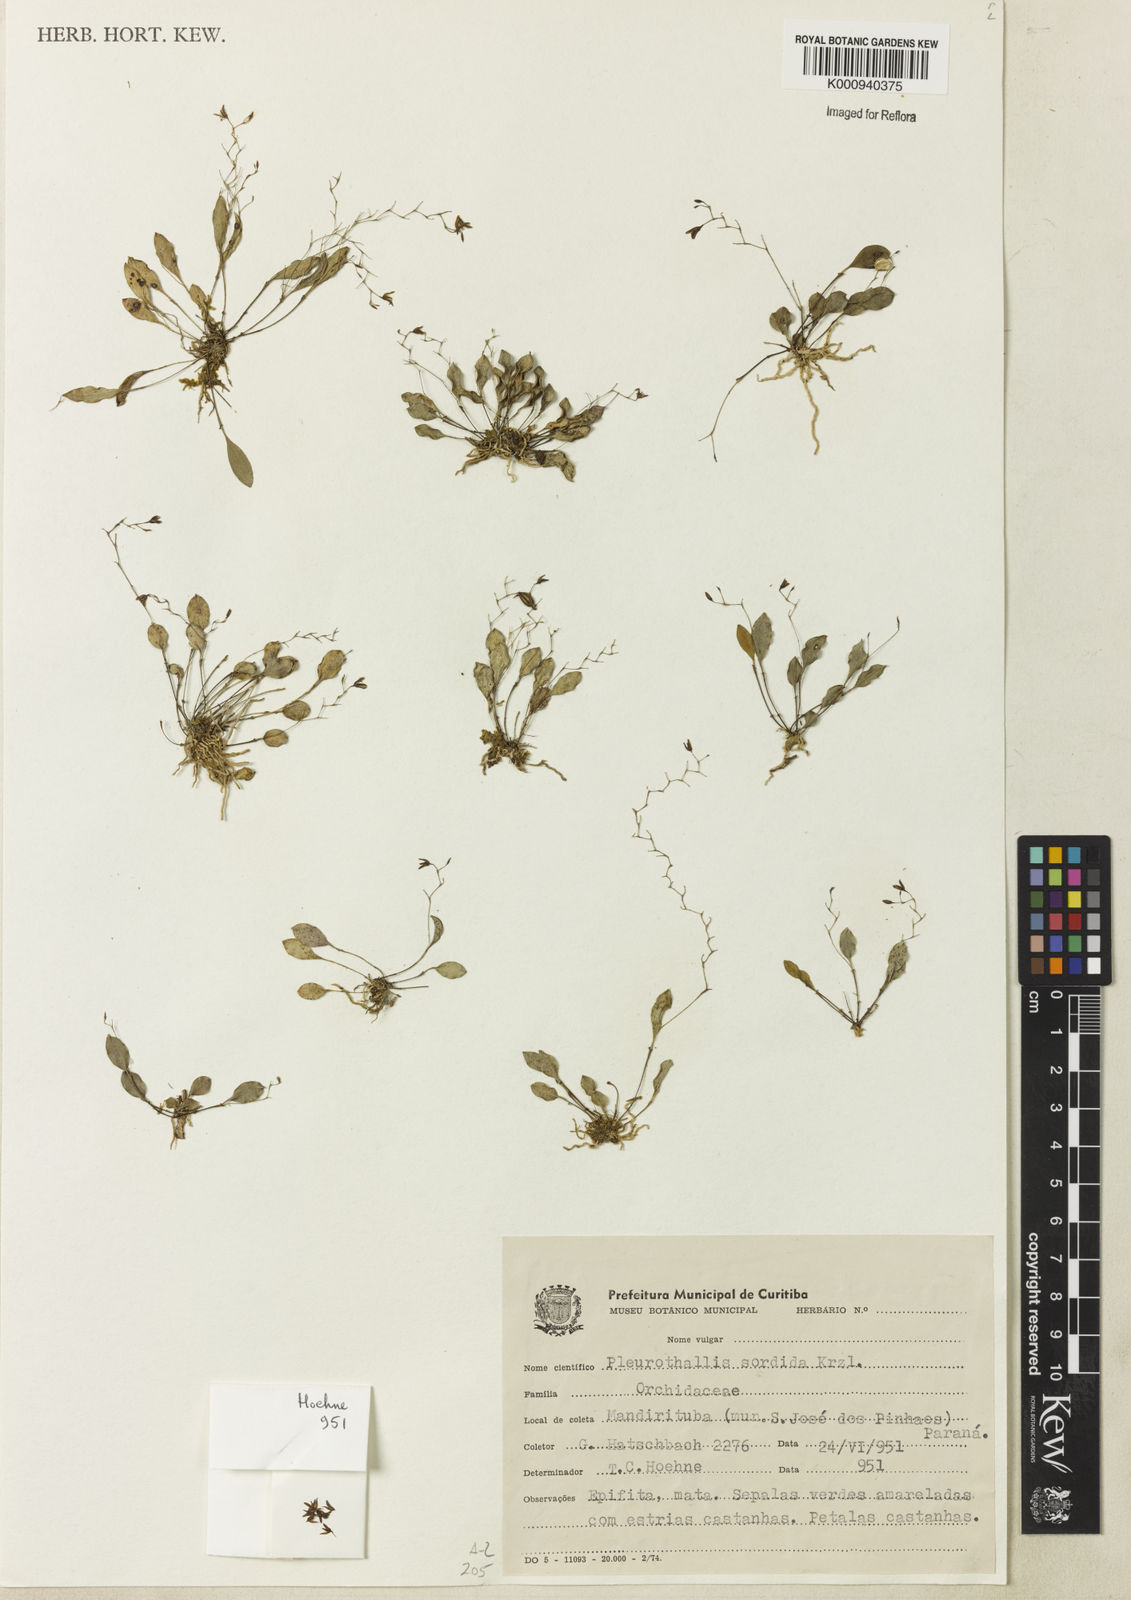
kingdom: Plantae
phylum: Tracheophyta
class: Liliopsida
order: Asparagales
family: Orchidaceae
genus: Pabstiella
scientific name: Pabstiella sordida
